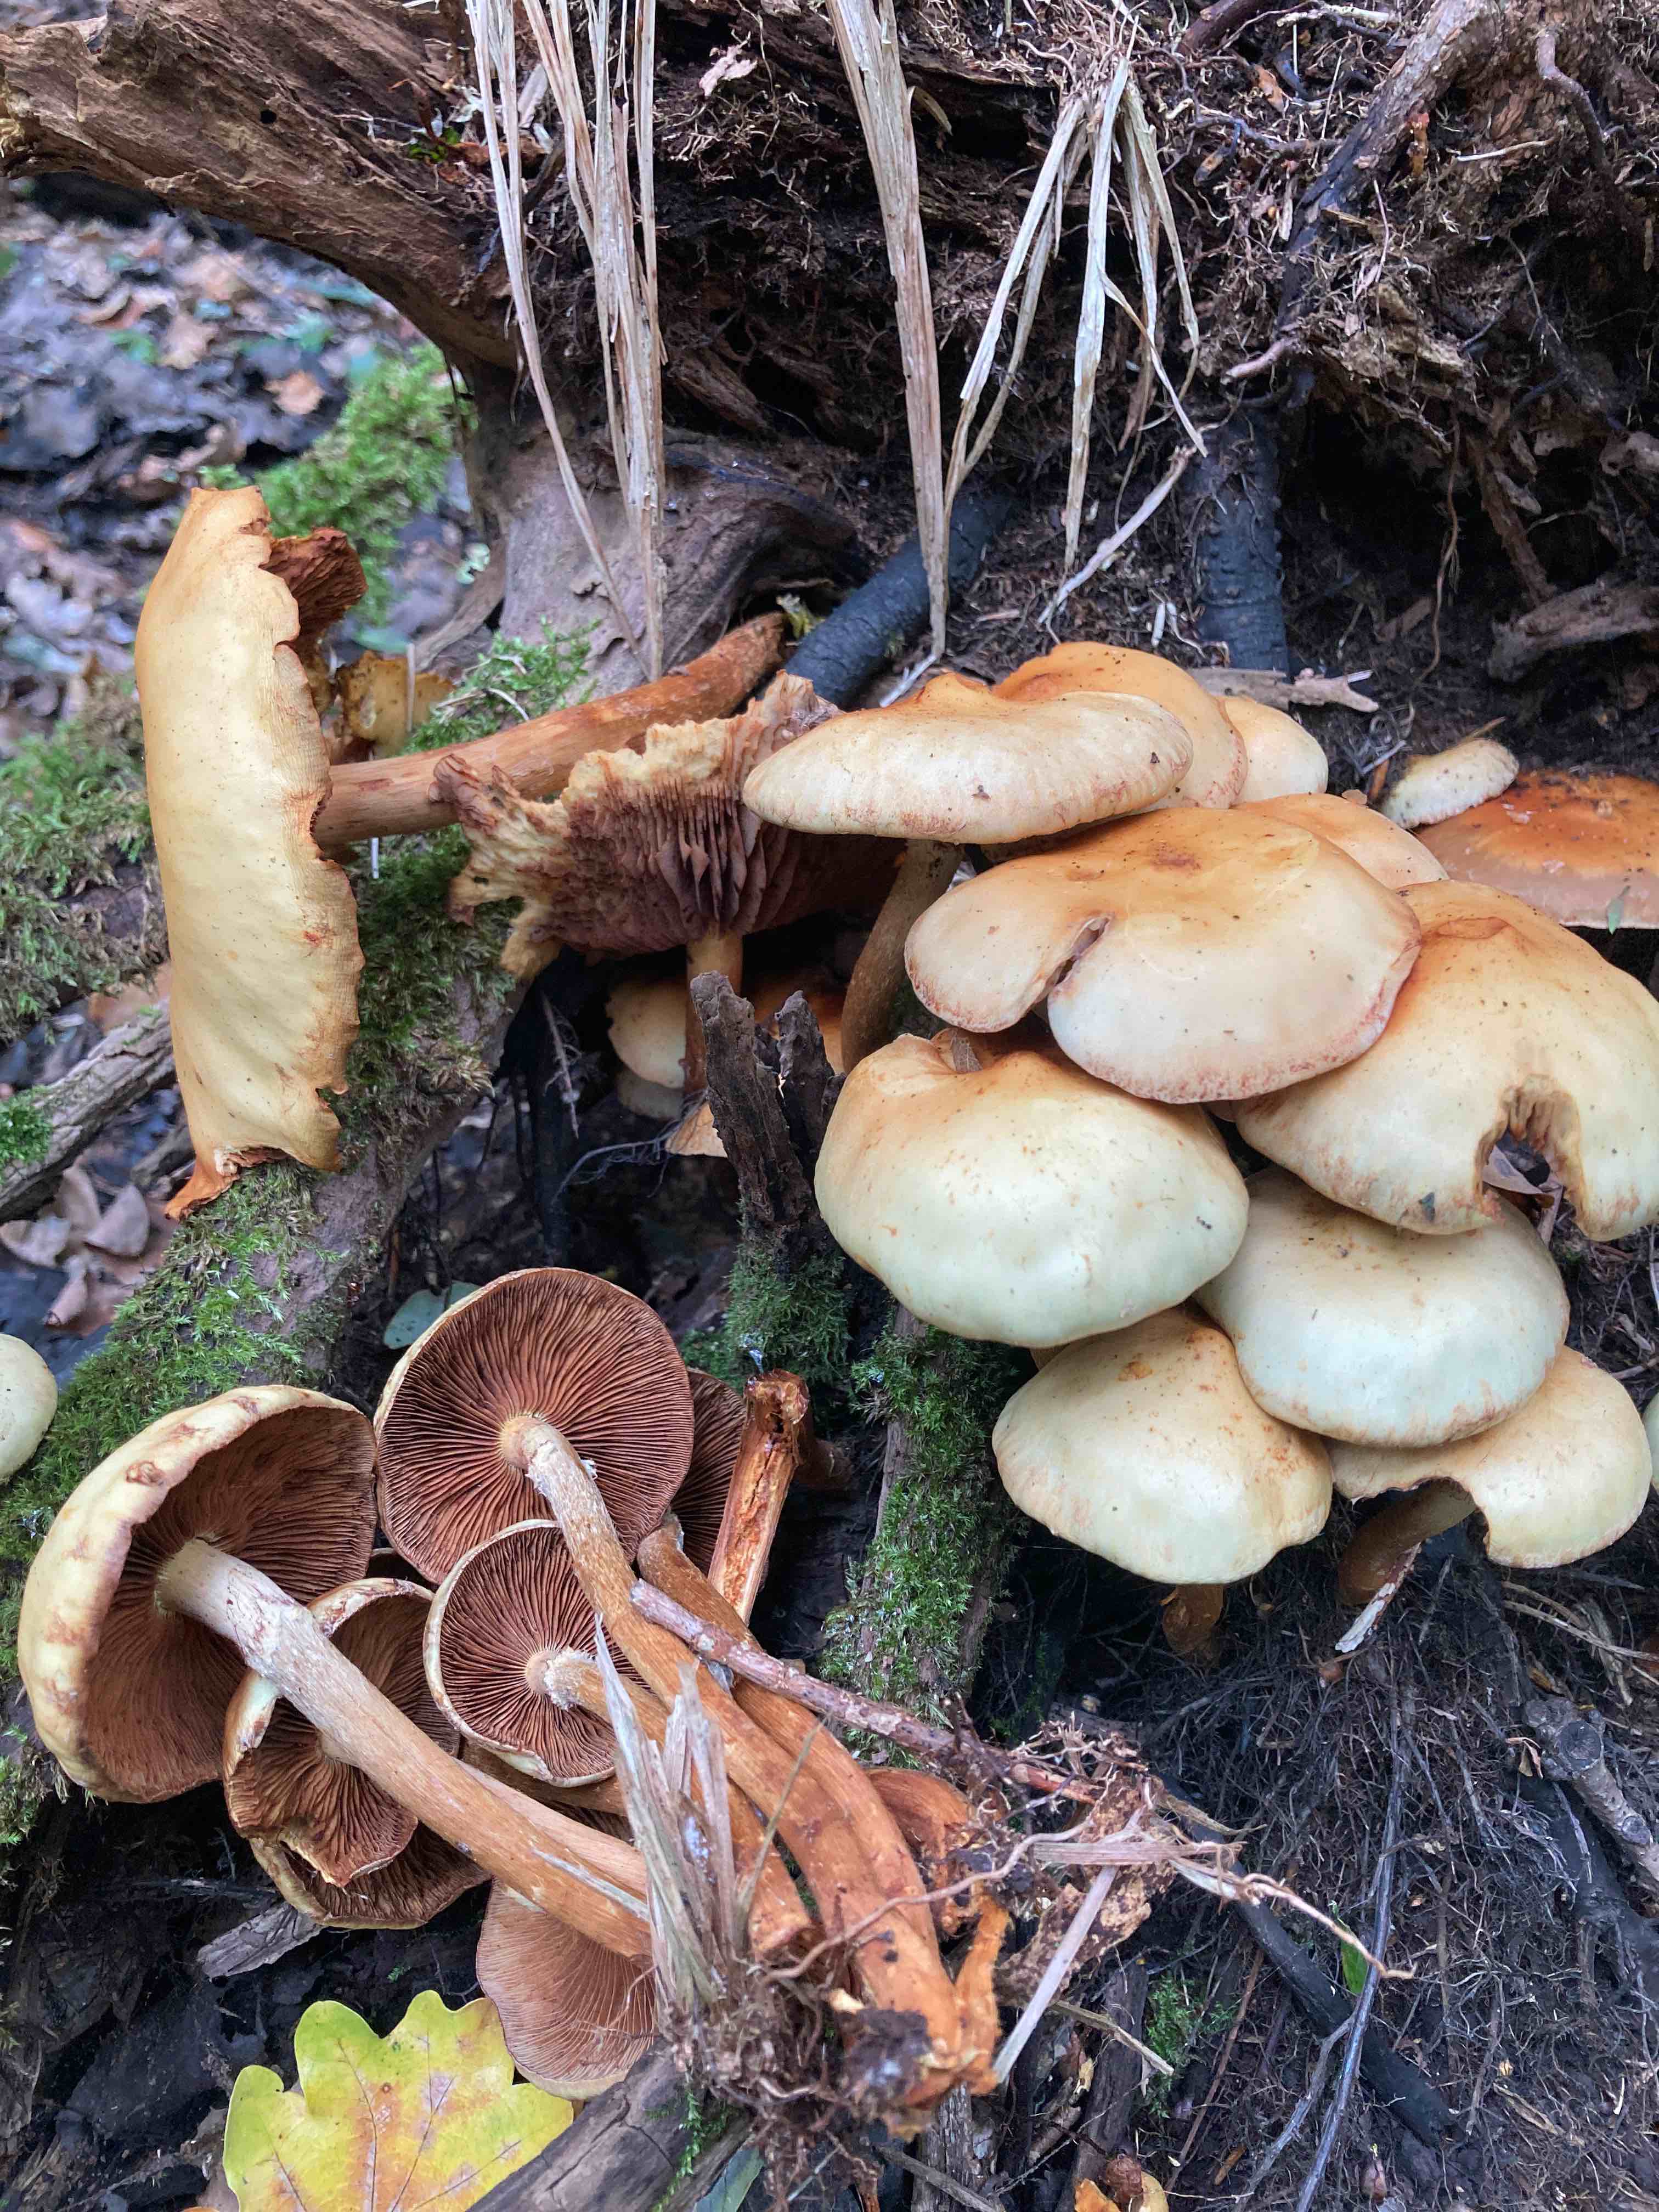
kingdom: Fungi
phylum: Basidiomycota
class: Agaricomycetes
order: Agaricales
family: Hymenogastraceae
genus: Flammula
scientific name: Flammula alnicola
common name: elle-skælhat
